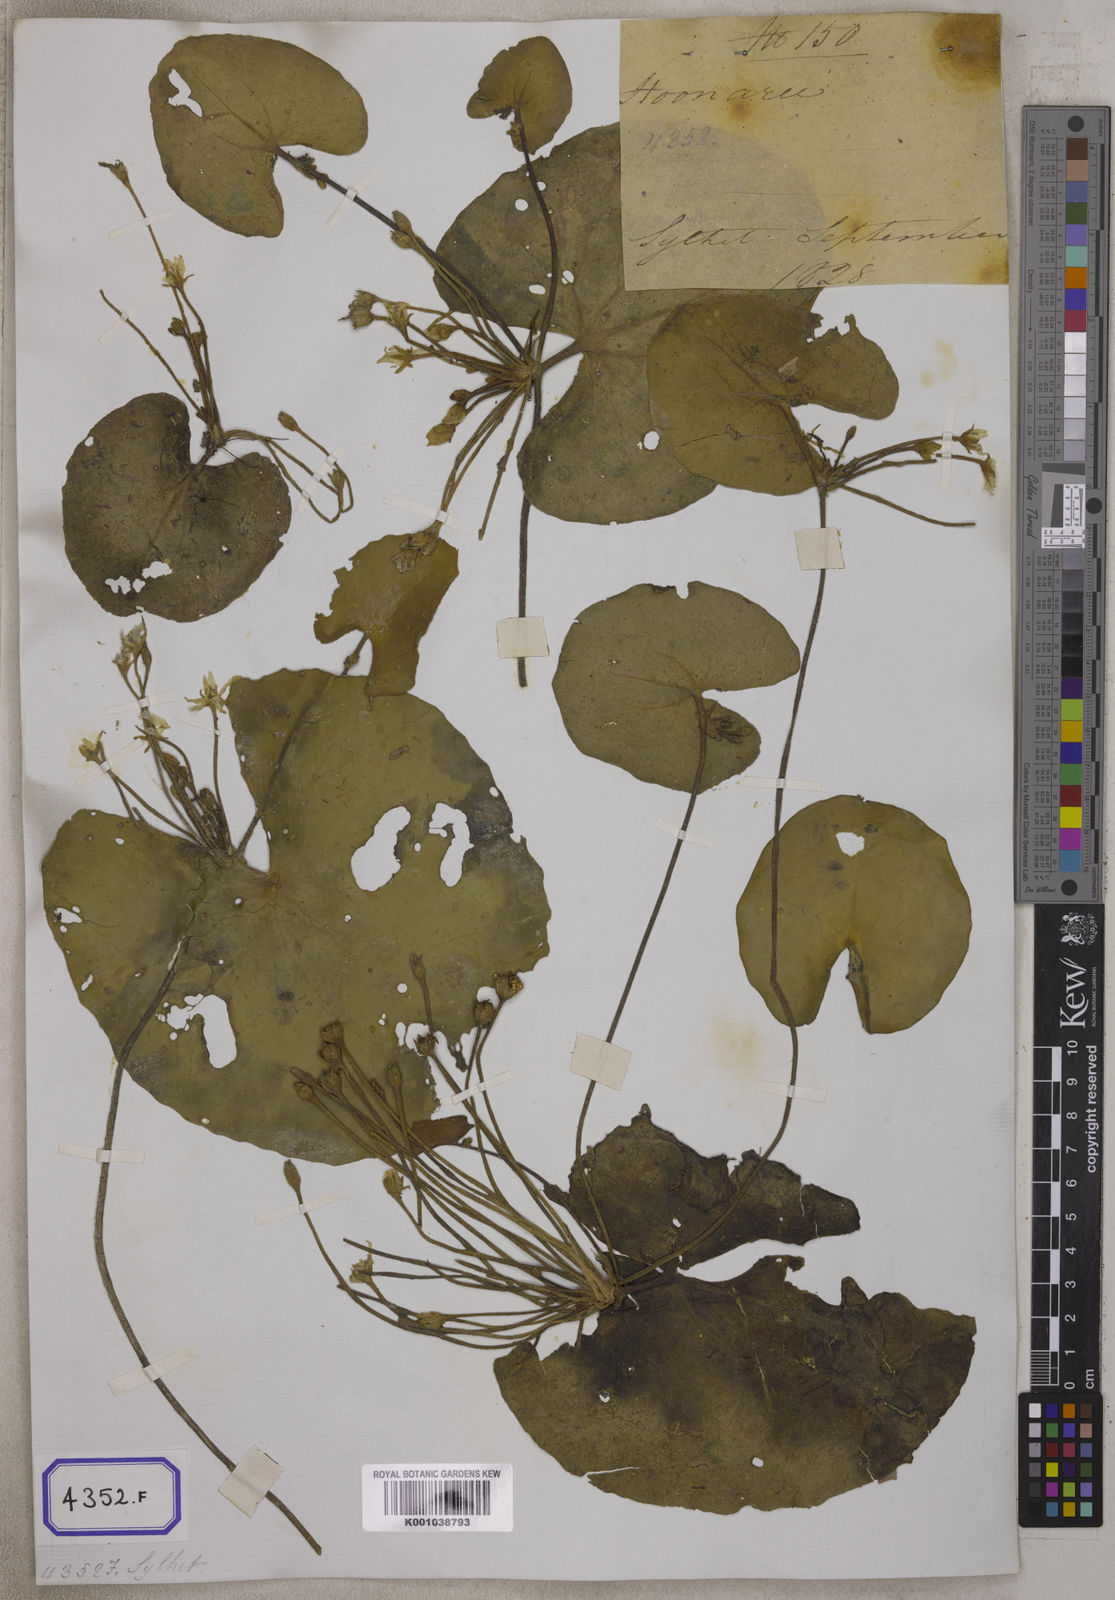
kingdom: Plantae
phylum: Tracheophyta
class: Magnoliopsida
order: Asterales
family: Menyanthaceae
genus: Villarsia
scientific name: Villarsia
